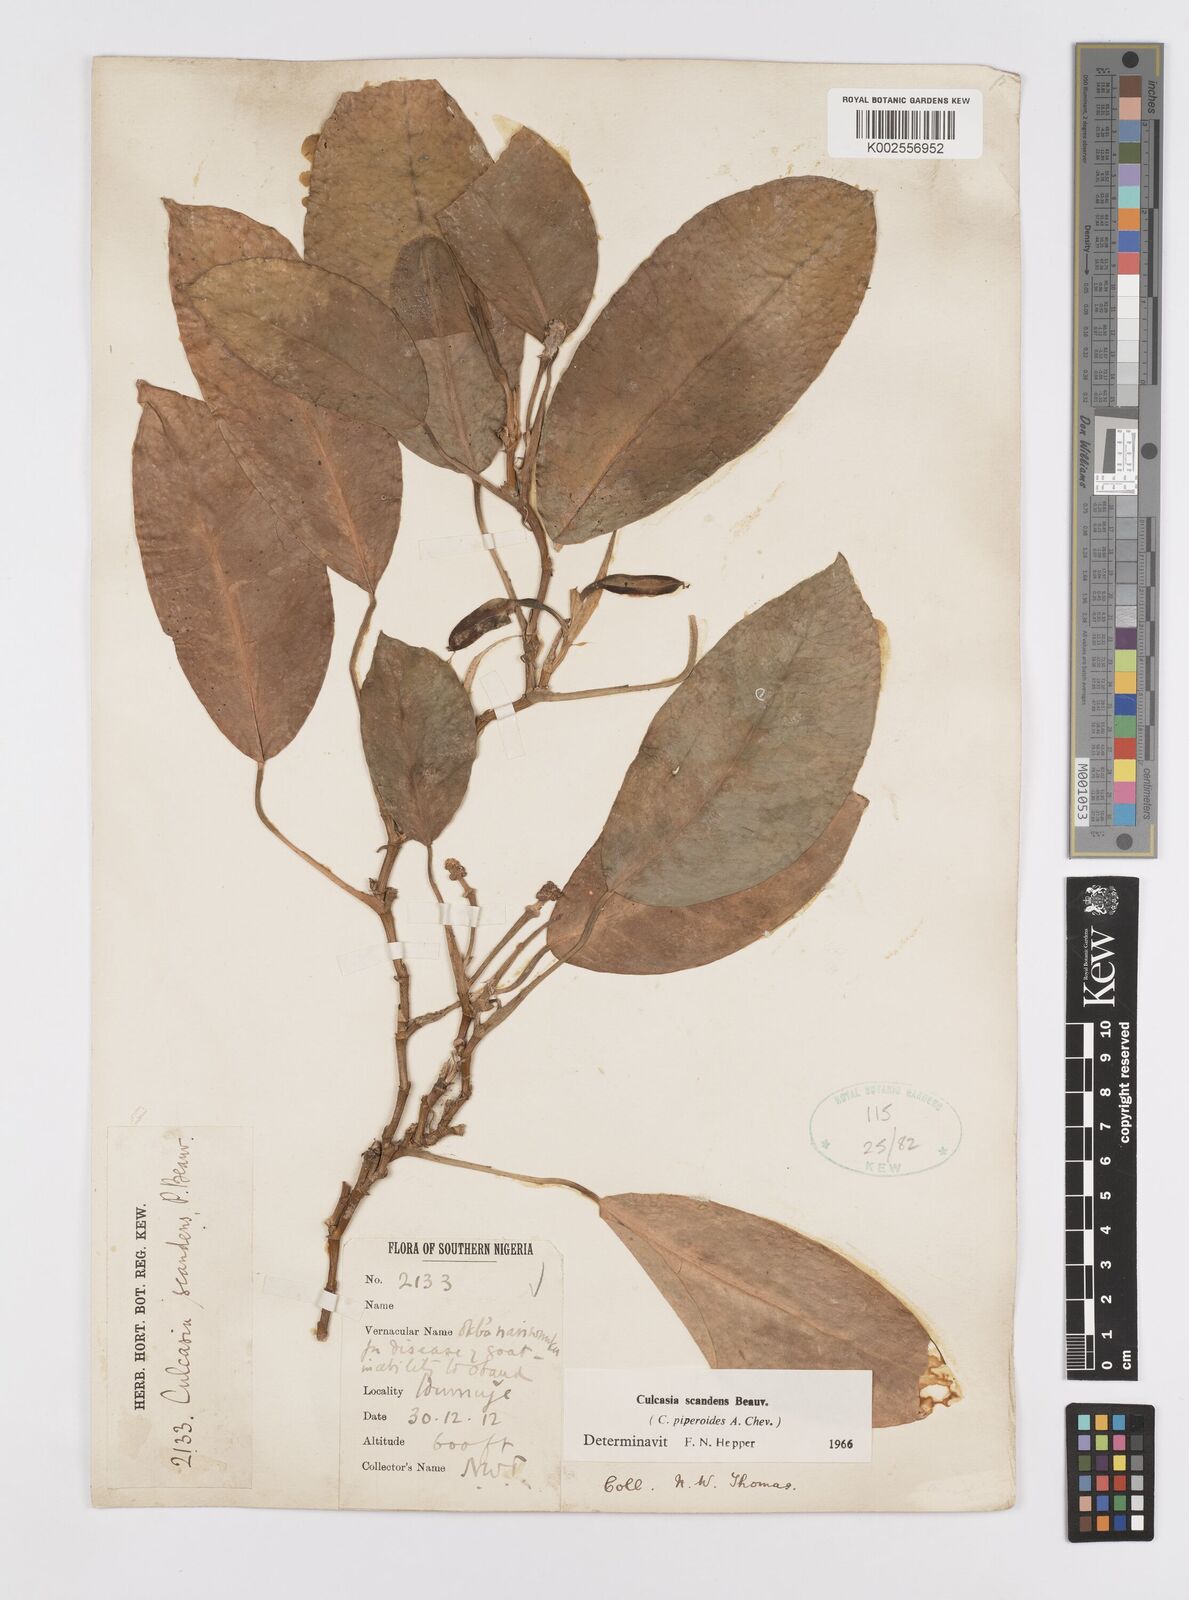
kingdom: Plantae
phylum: Tracheophyta
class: Liliopsida
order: Alismatales
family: Araceae
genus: Culcasia
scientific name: Culcasia scandens
